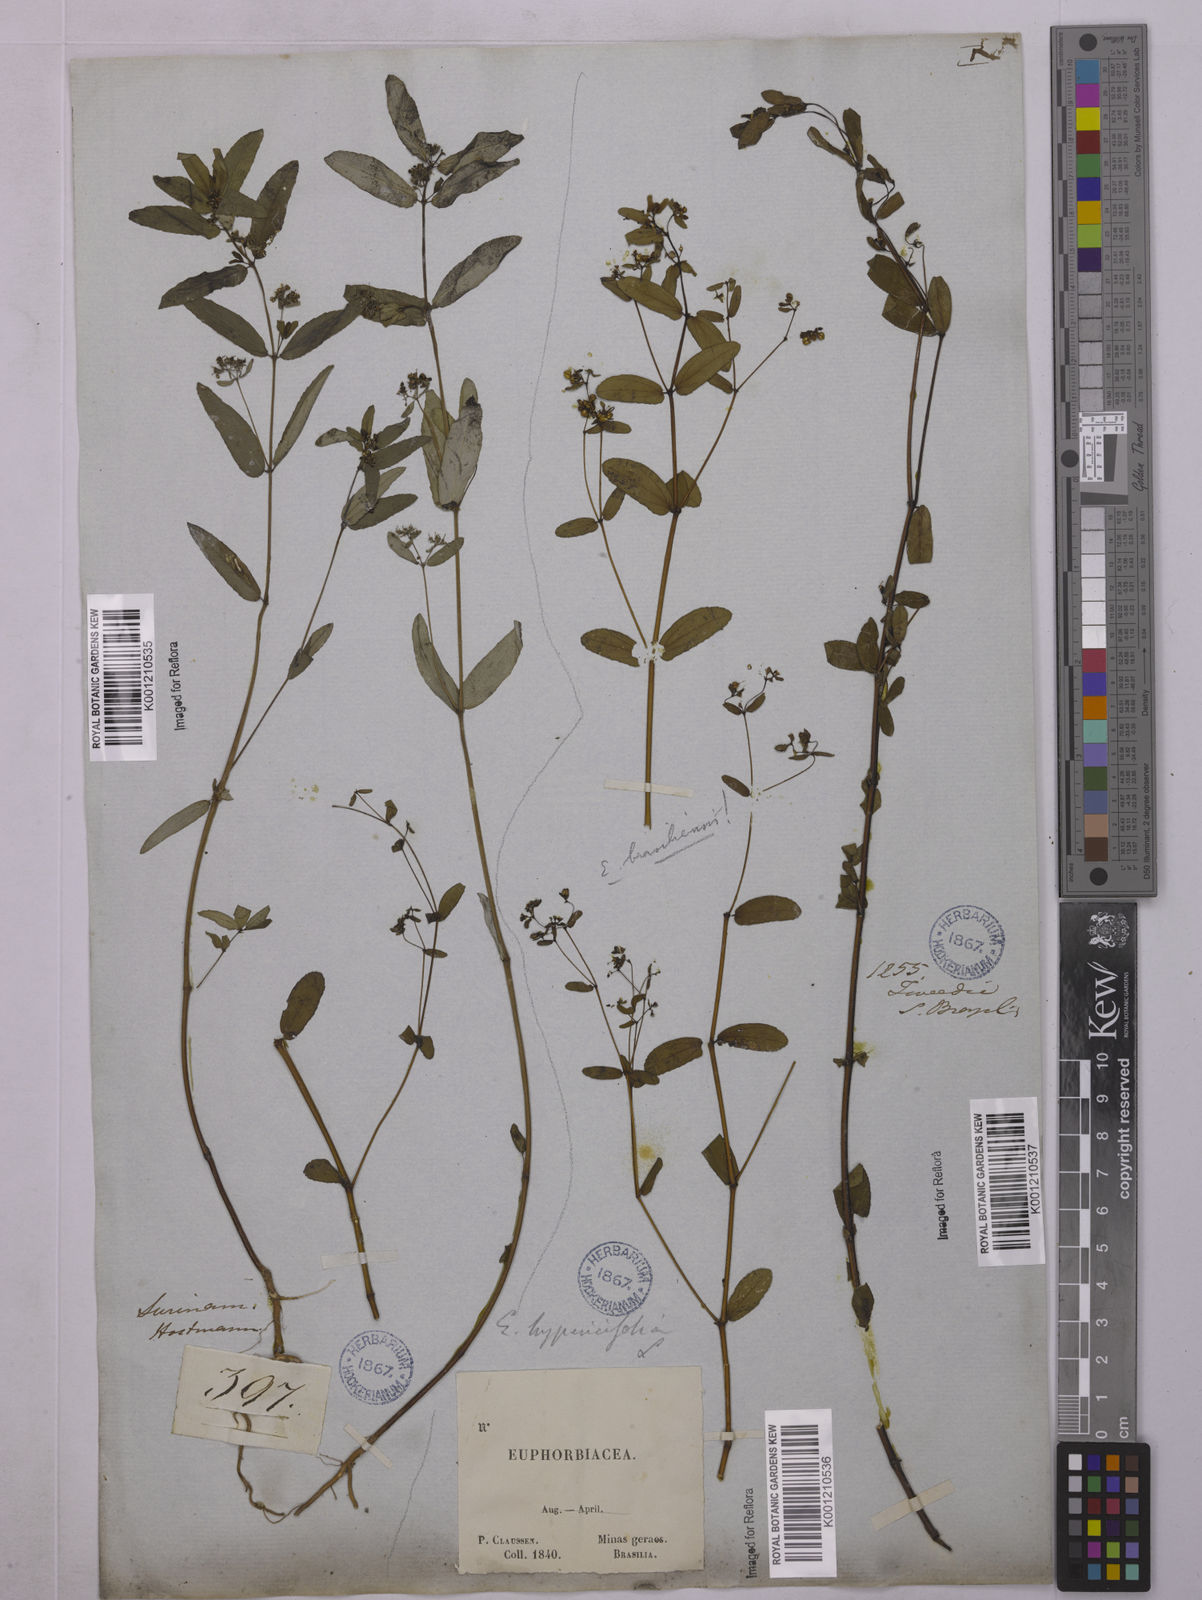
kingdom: Plantae
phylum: Tracheophyta
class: Magnoliopsida
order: Malpighiales
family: Euphorbiaceae
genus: Euphorbia
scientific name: Euphorbia hypericifolia
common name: Graceful sandmat
